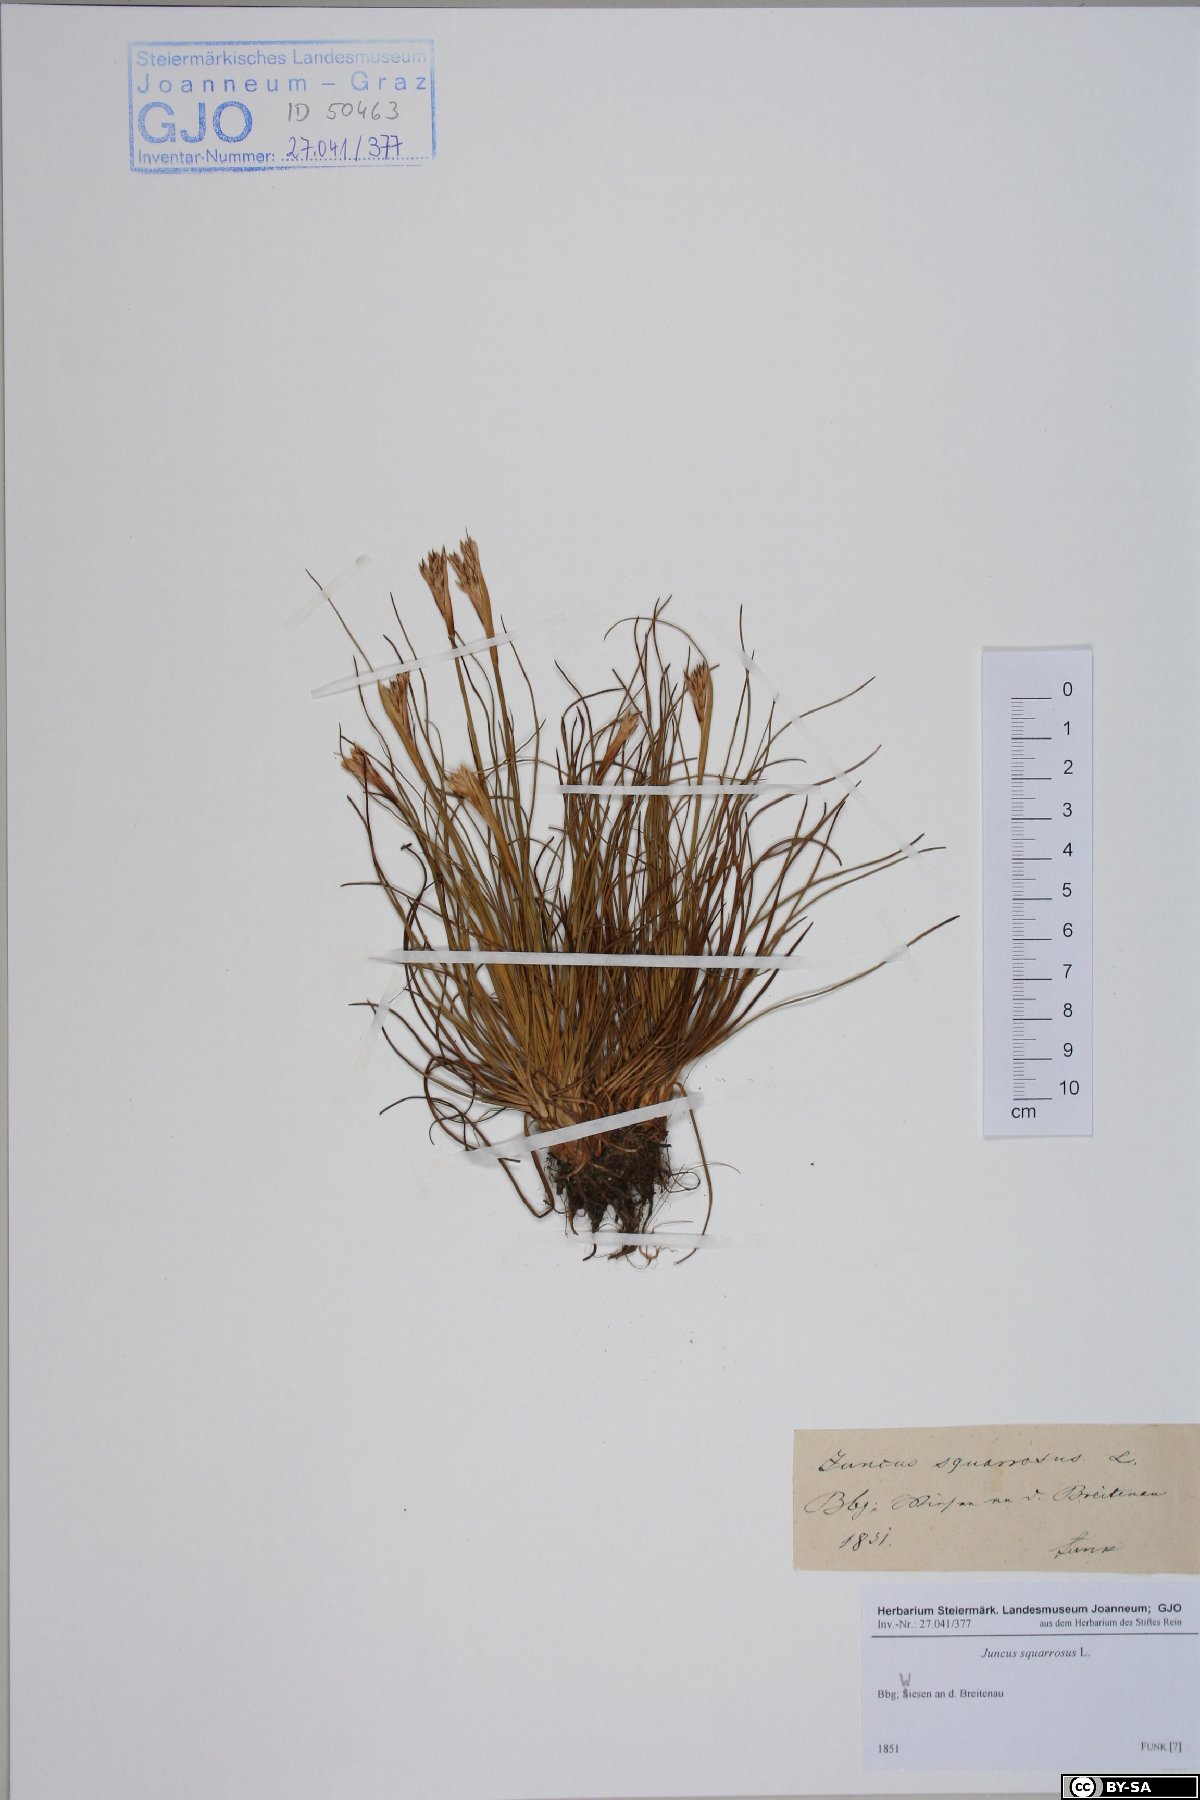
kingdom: Plantae
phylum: Tracheophyta
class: Liliopsida
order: Poales
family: Juncaceae
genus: Juncus
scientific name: Juncus squarrosus
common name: Heath rush
